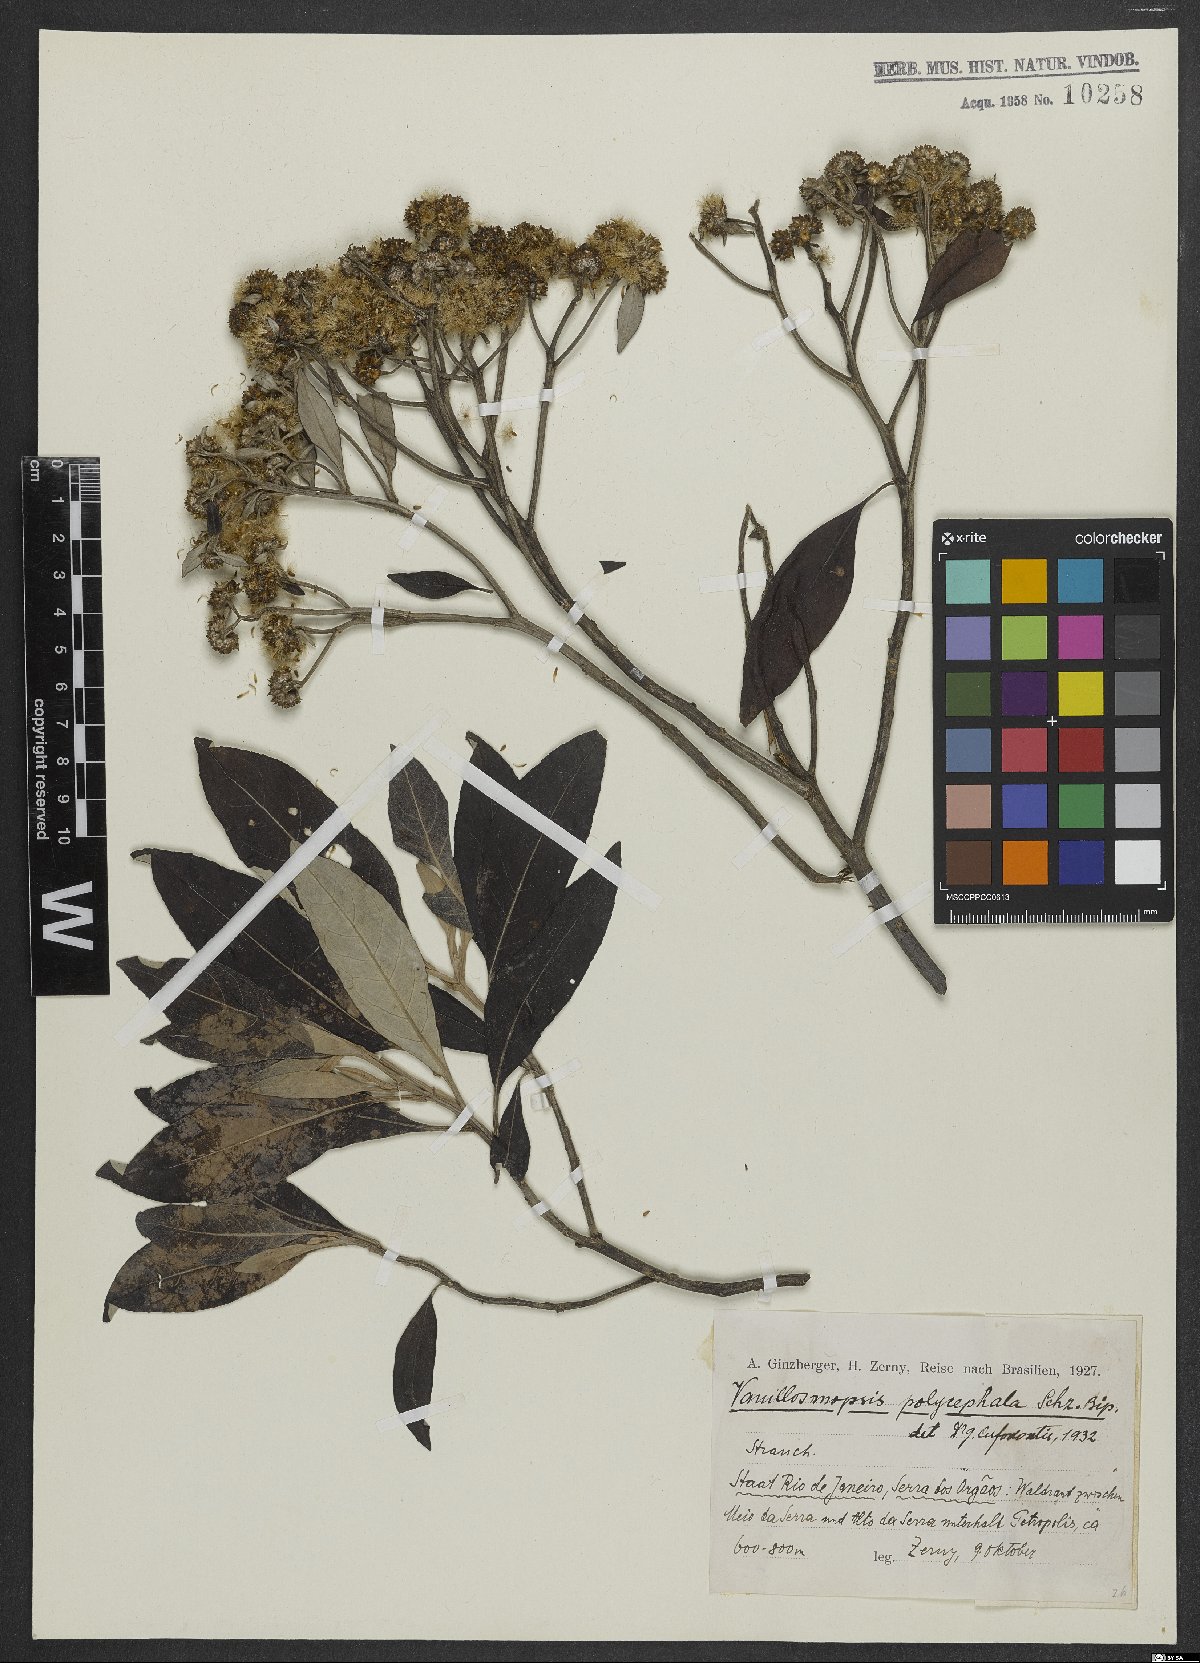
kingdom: Plantae
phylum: Tracheophyta
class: Magnoliopsida
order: Asterales
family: Asteraceae
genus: Eremanthus
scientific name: Eremanthus polycephalus
